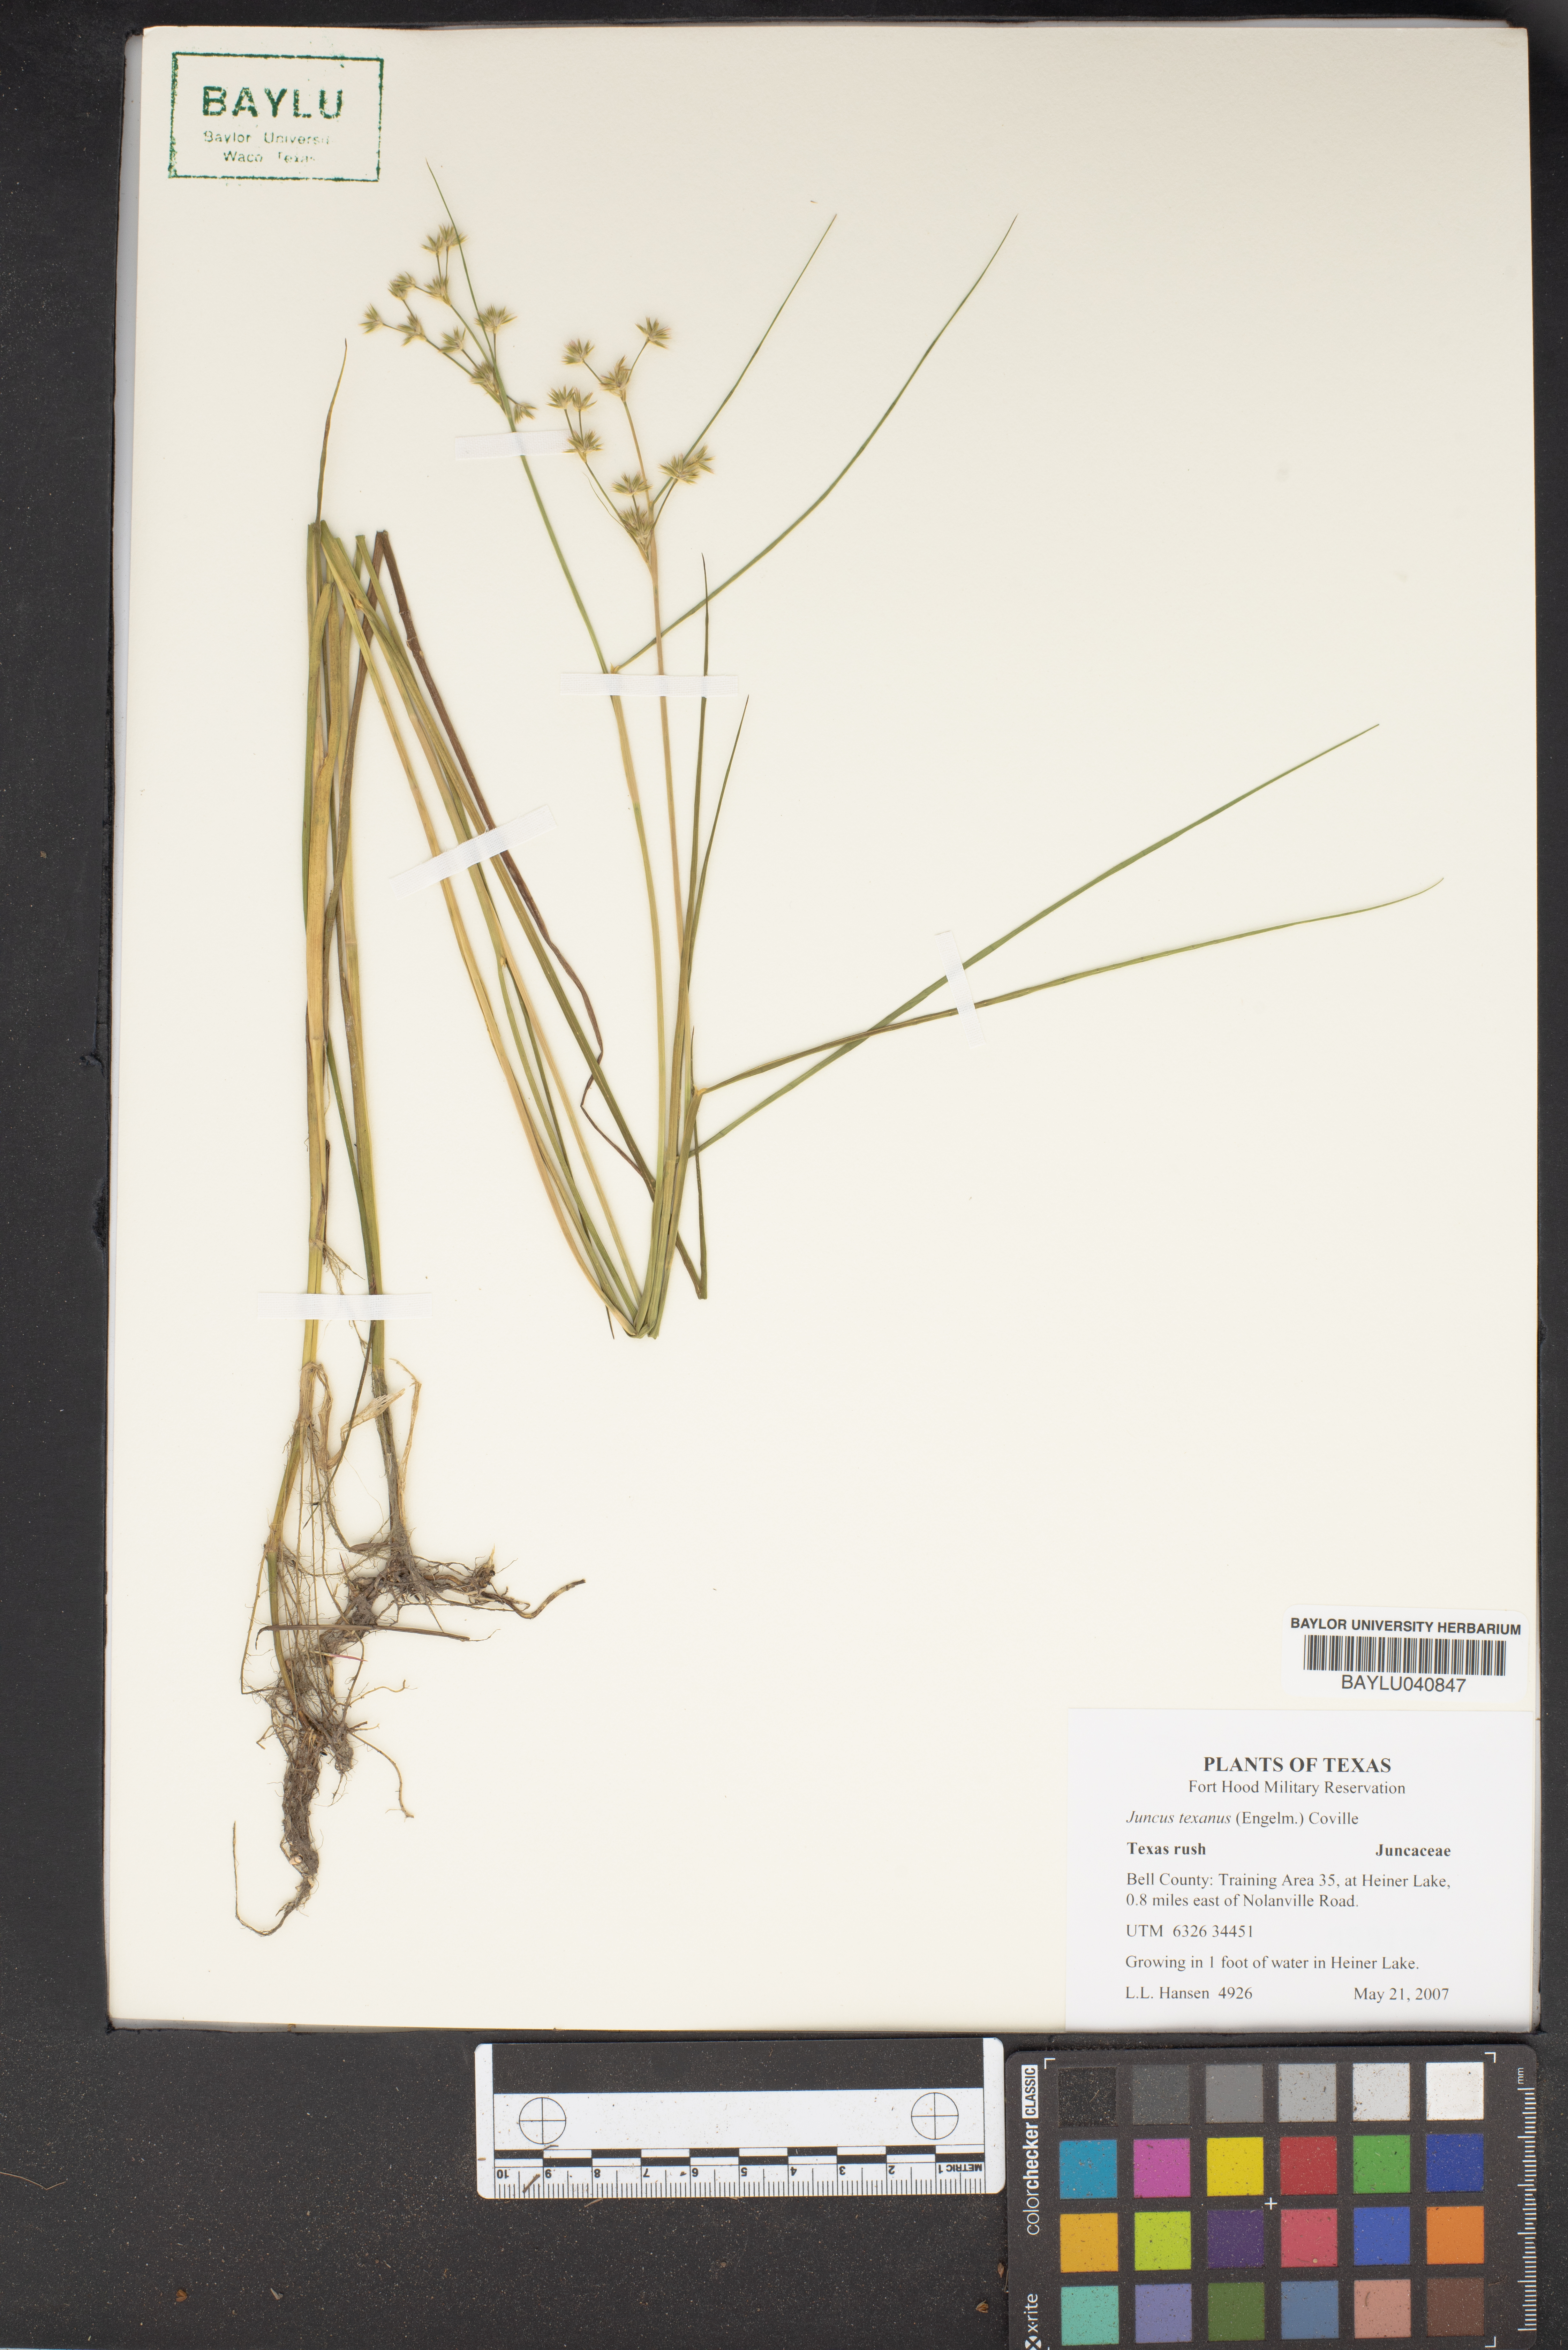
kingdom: Plantae
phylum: Tracheophyta
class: Liliopsida
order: Poales
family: Juncaceae
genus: Juncus
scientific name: Juncus texanus
